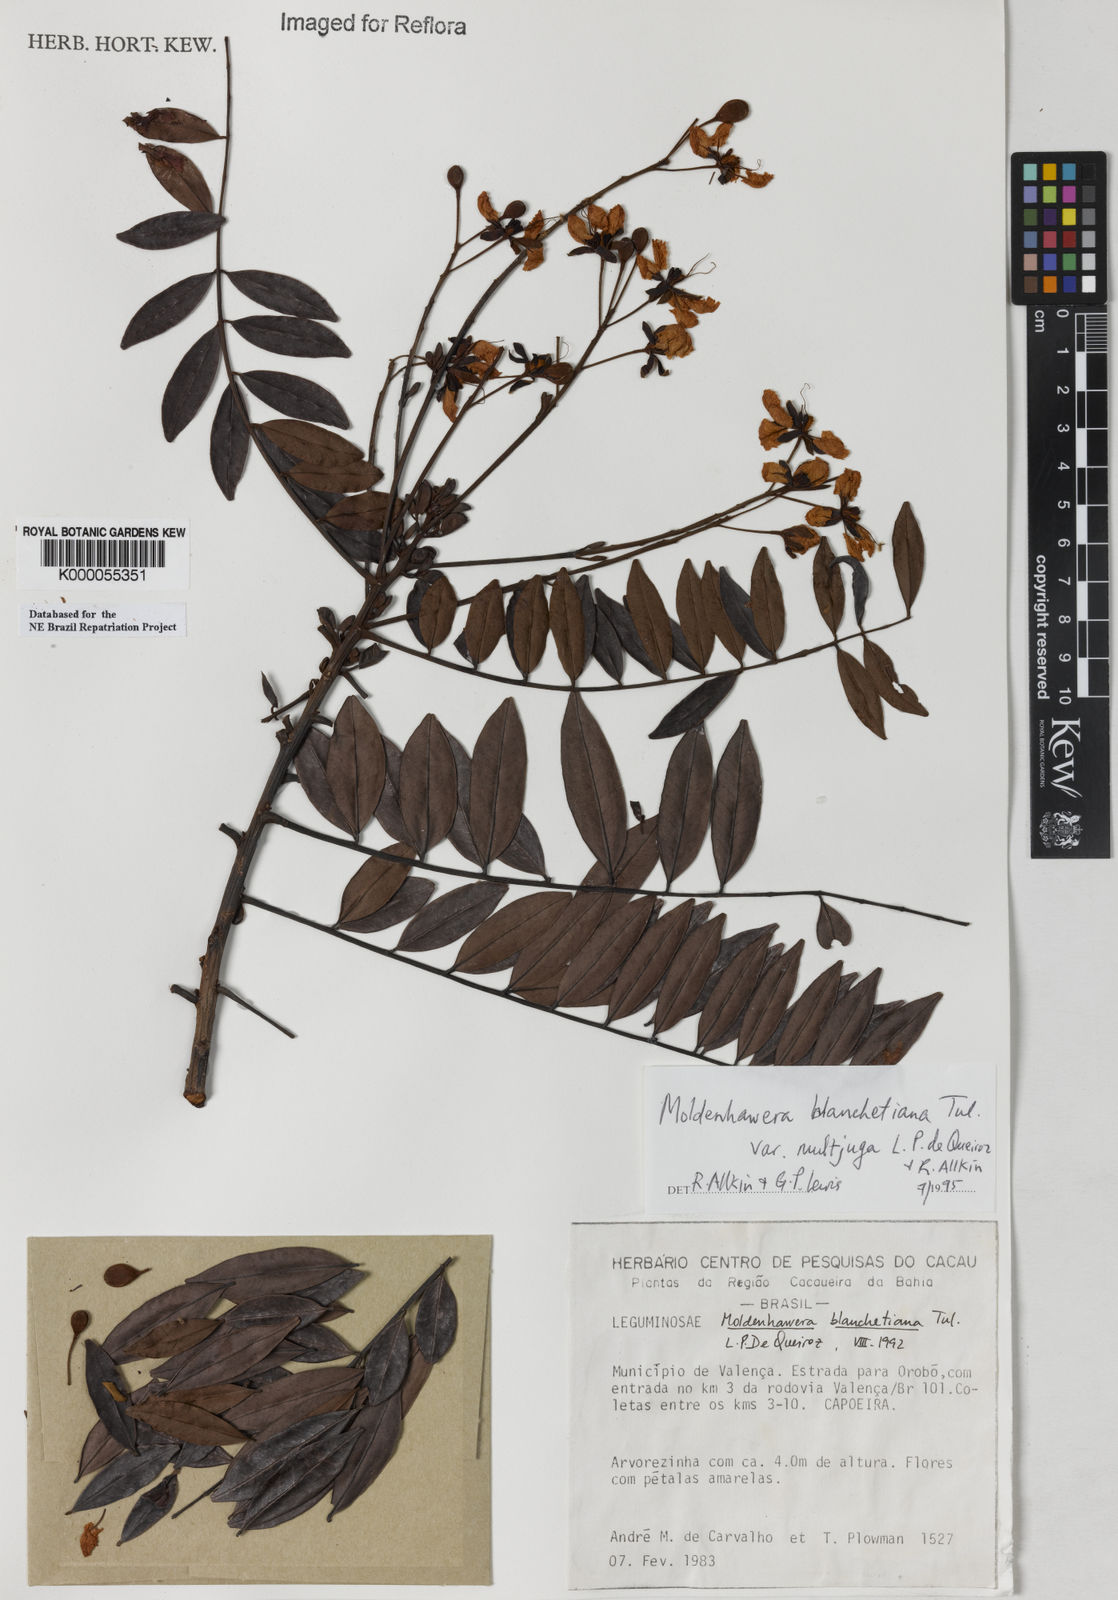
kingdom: Plantae
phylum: Tracheophyta
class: Magnoliopsida
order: Fabales
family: Fabaceae
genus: Moldenhawera
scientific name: Moldenhawera blanchetiana
